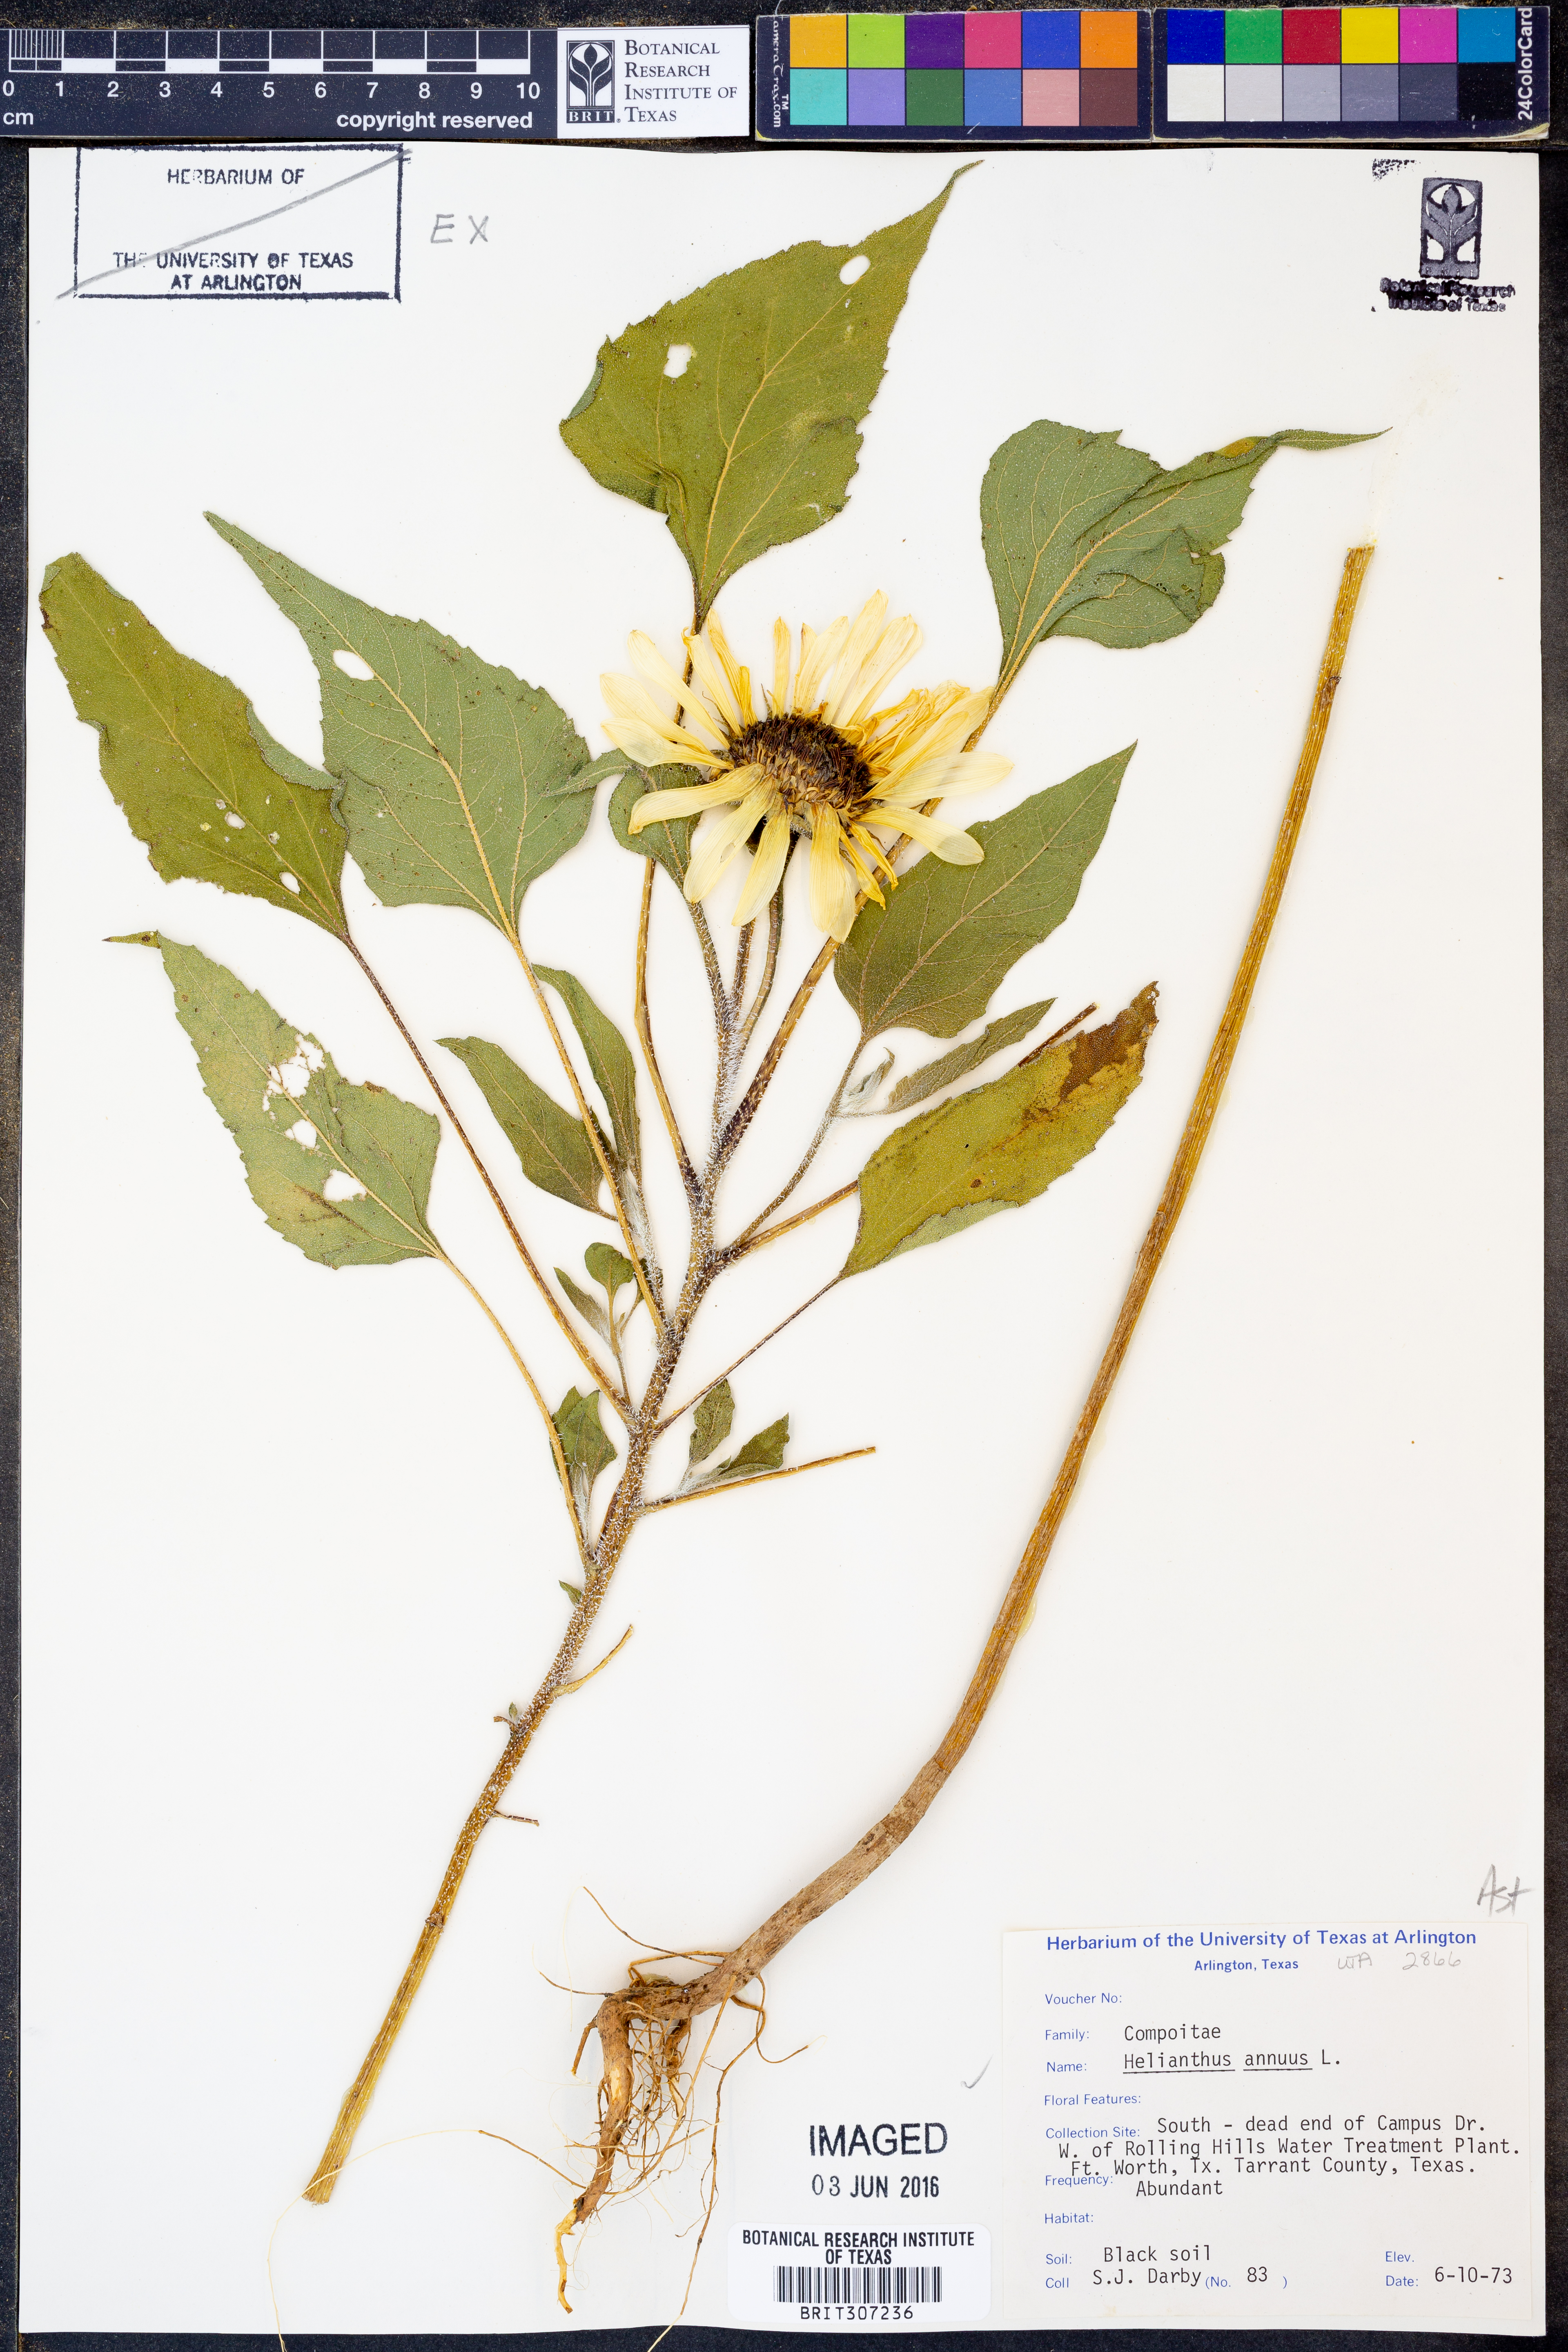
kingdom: Plantae
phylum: Tracheophyta
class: Magnoliopsida
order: Asterales
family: Asteraceae
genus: Helianthus
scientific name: Helianthus annuus
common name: Sunflower
